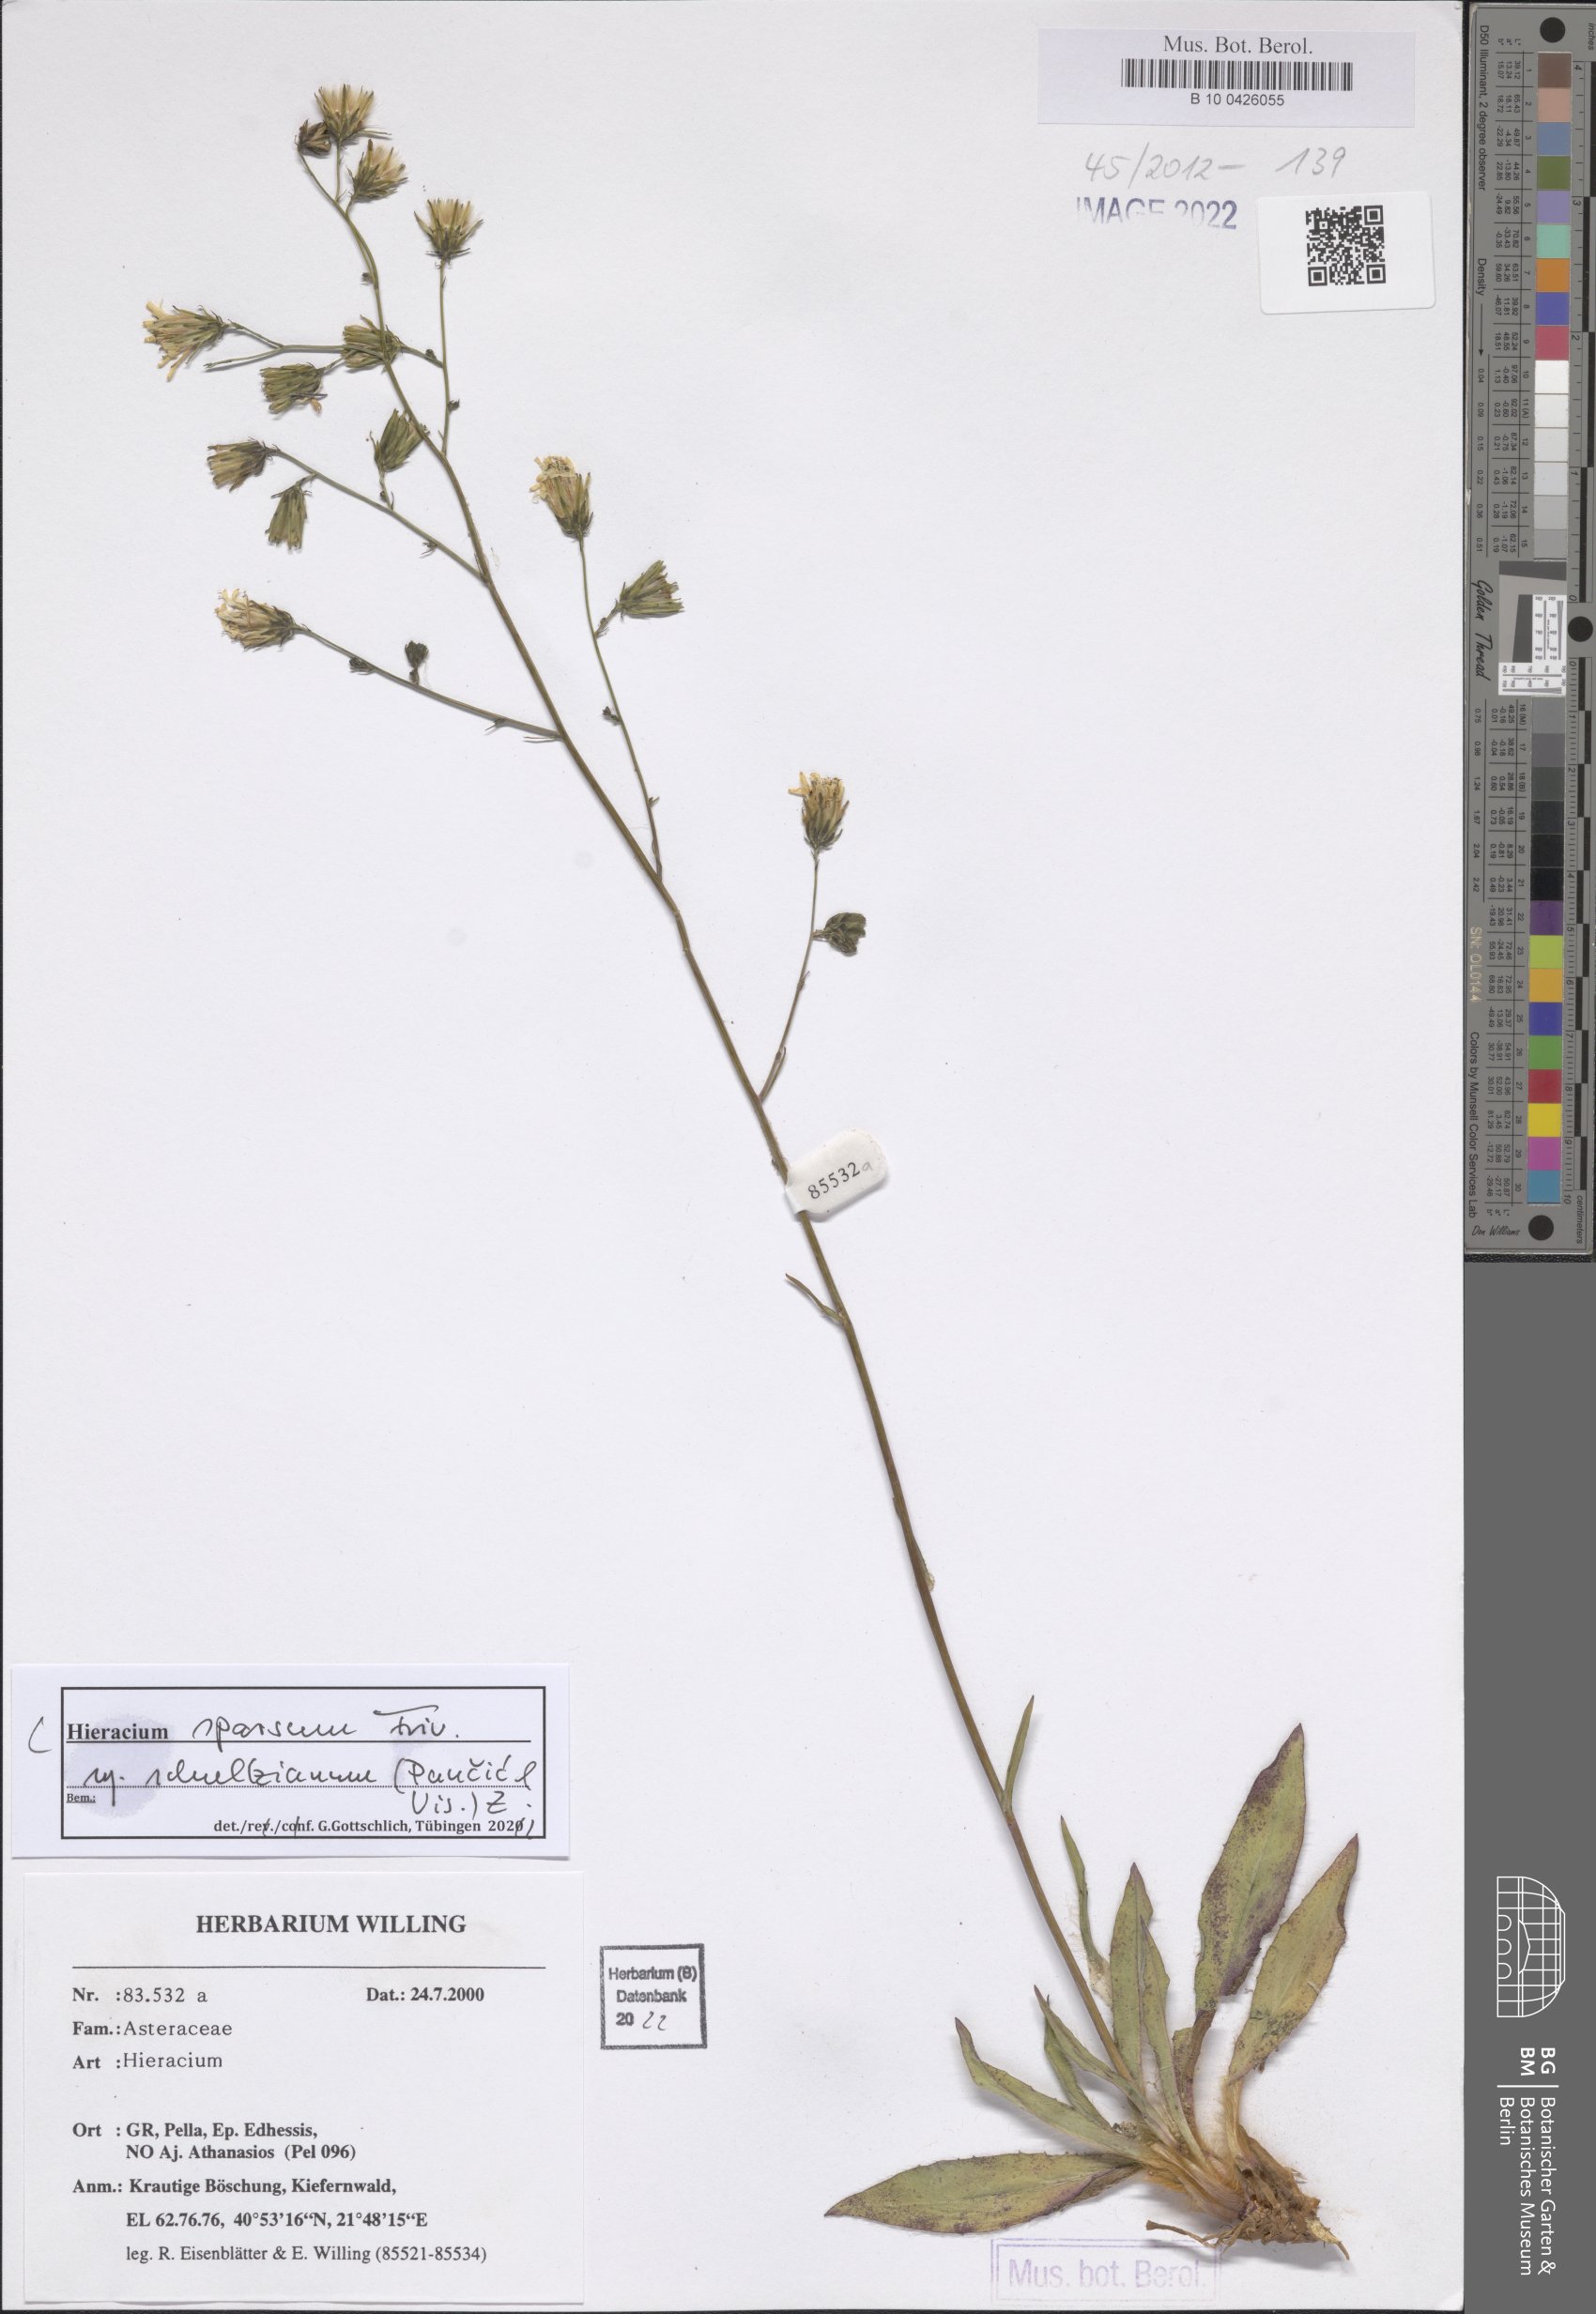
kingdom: Plantae
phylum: Tracheophyta
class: Magnoliopsida
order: Asterales
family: Asteraceae
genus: Hieracium
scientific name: Hieracium sparsum
